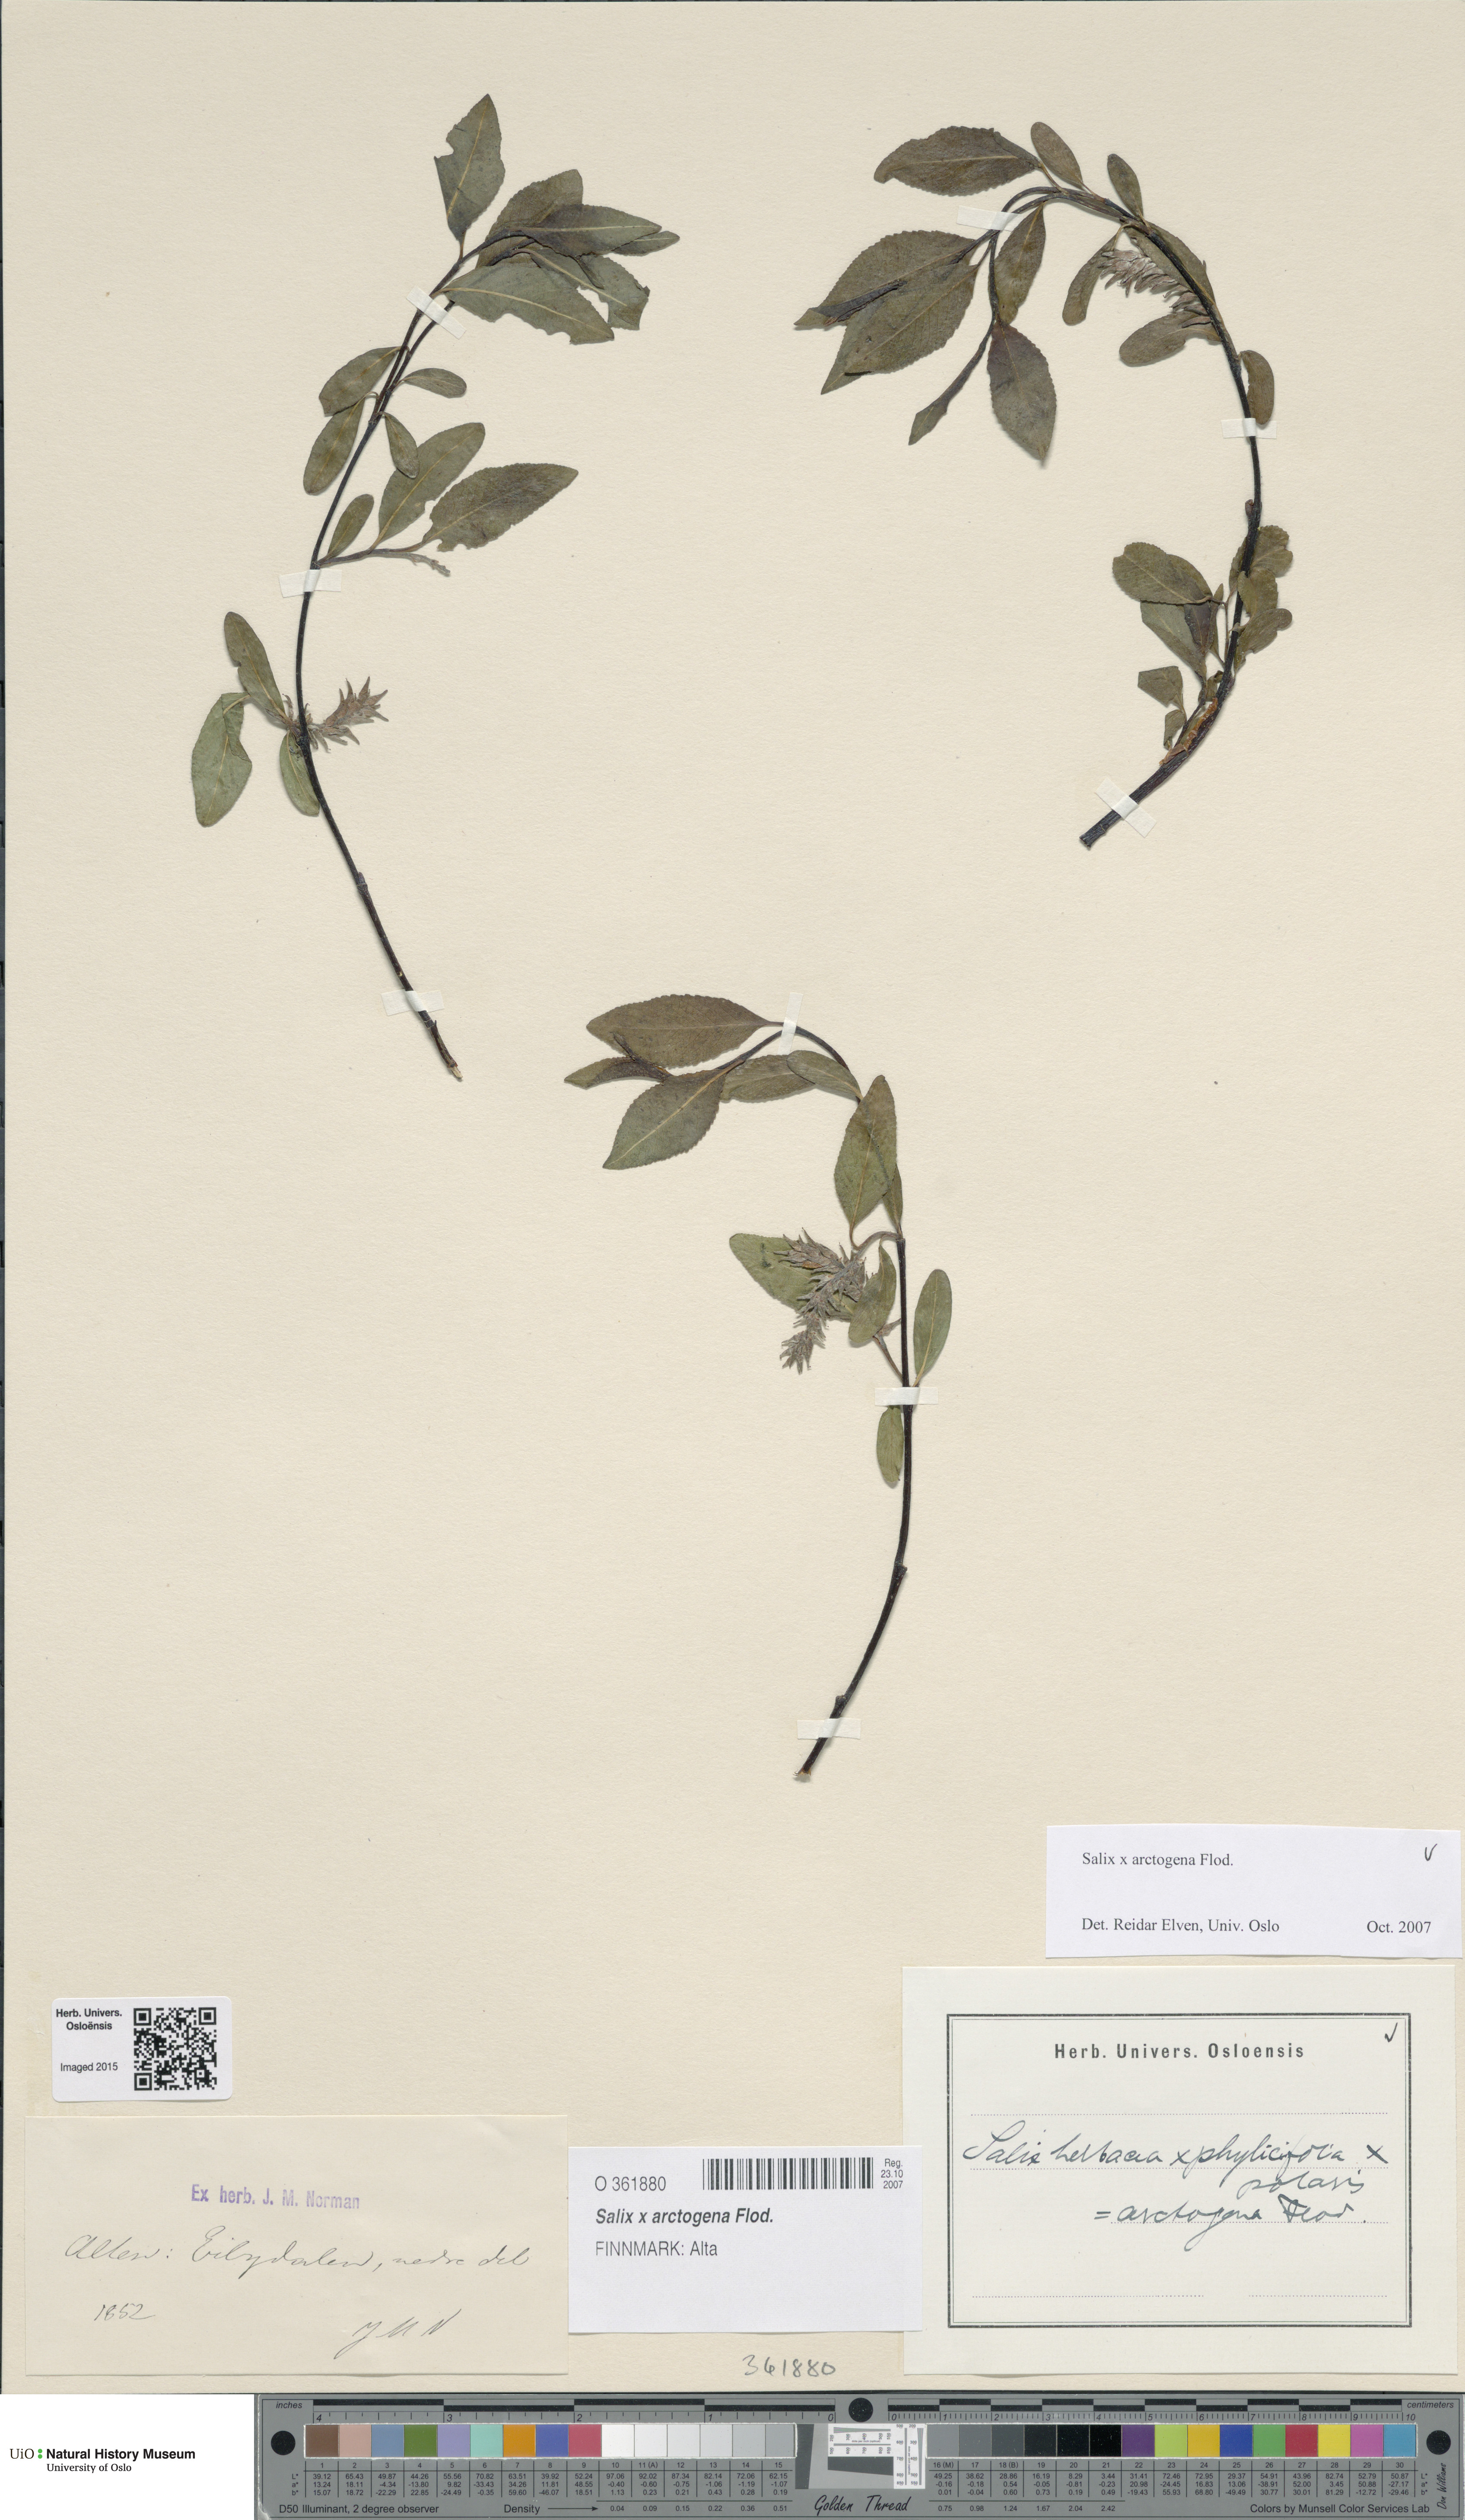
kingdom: Plantae
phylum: Tracheophyta
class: Magnoliopsida
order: Malpighiales
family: Salicaceae
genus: Salix
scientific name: Salix arctogena
